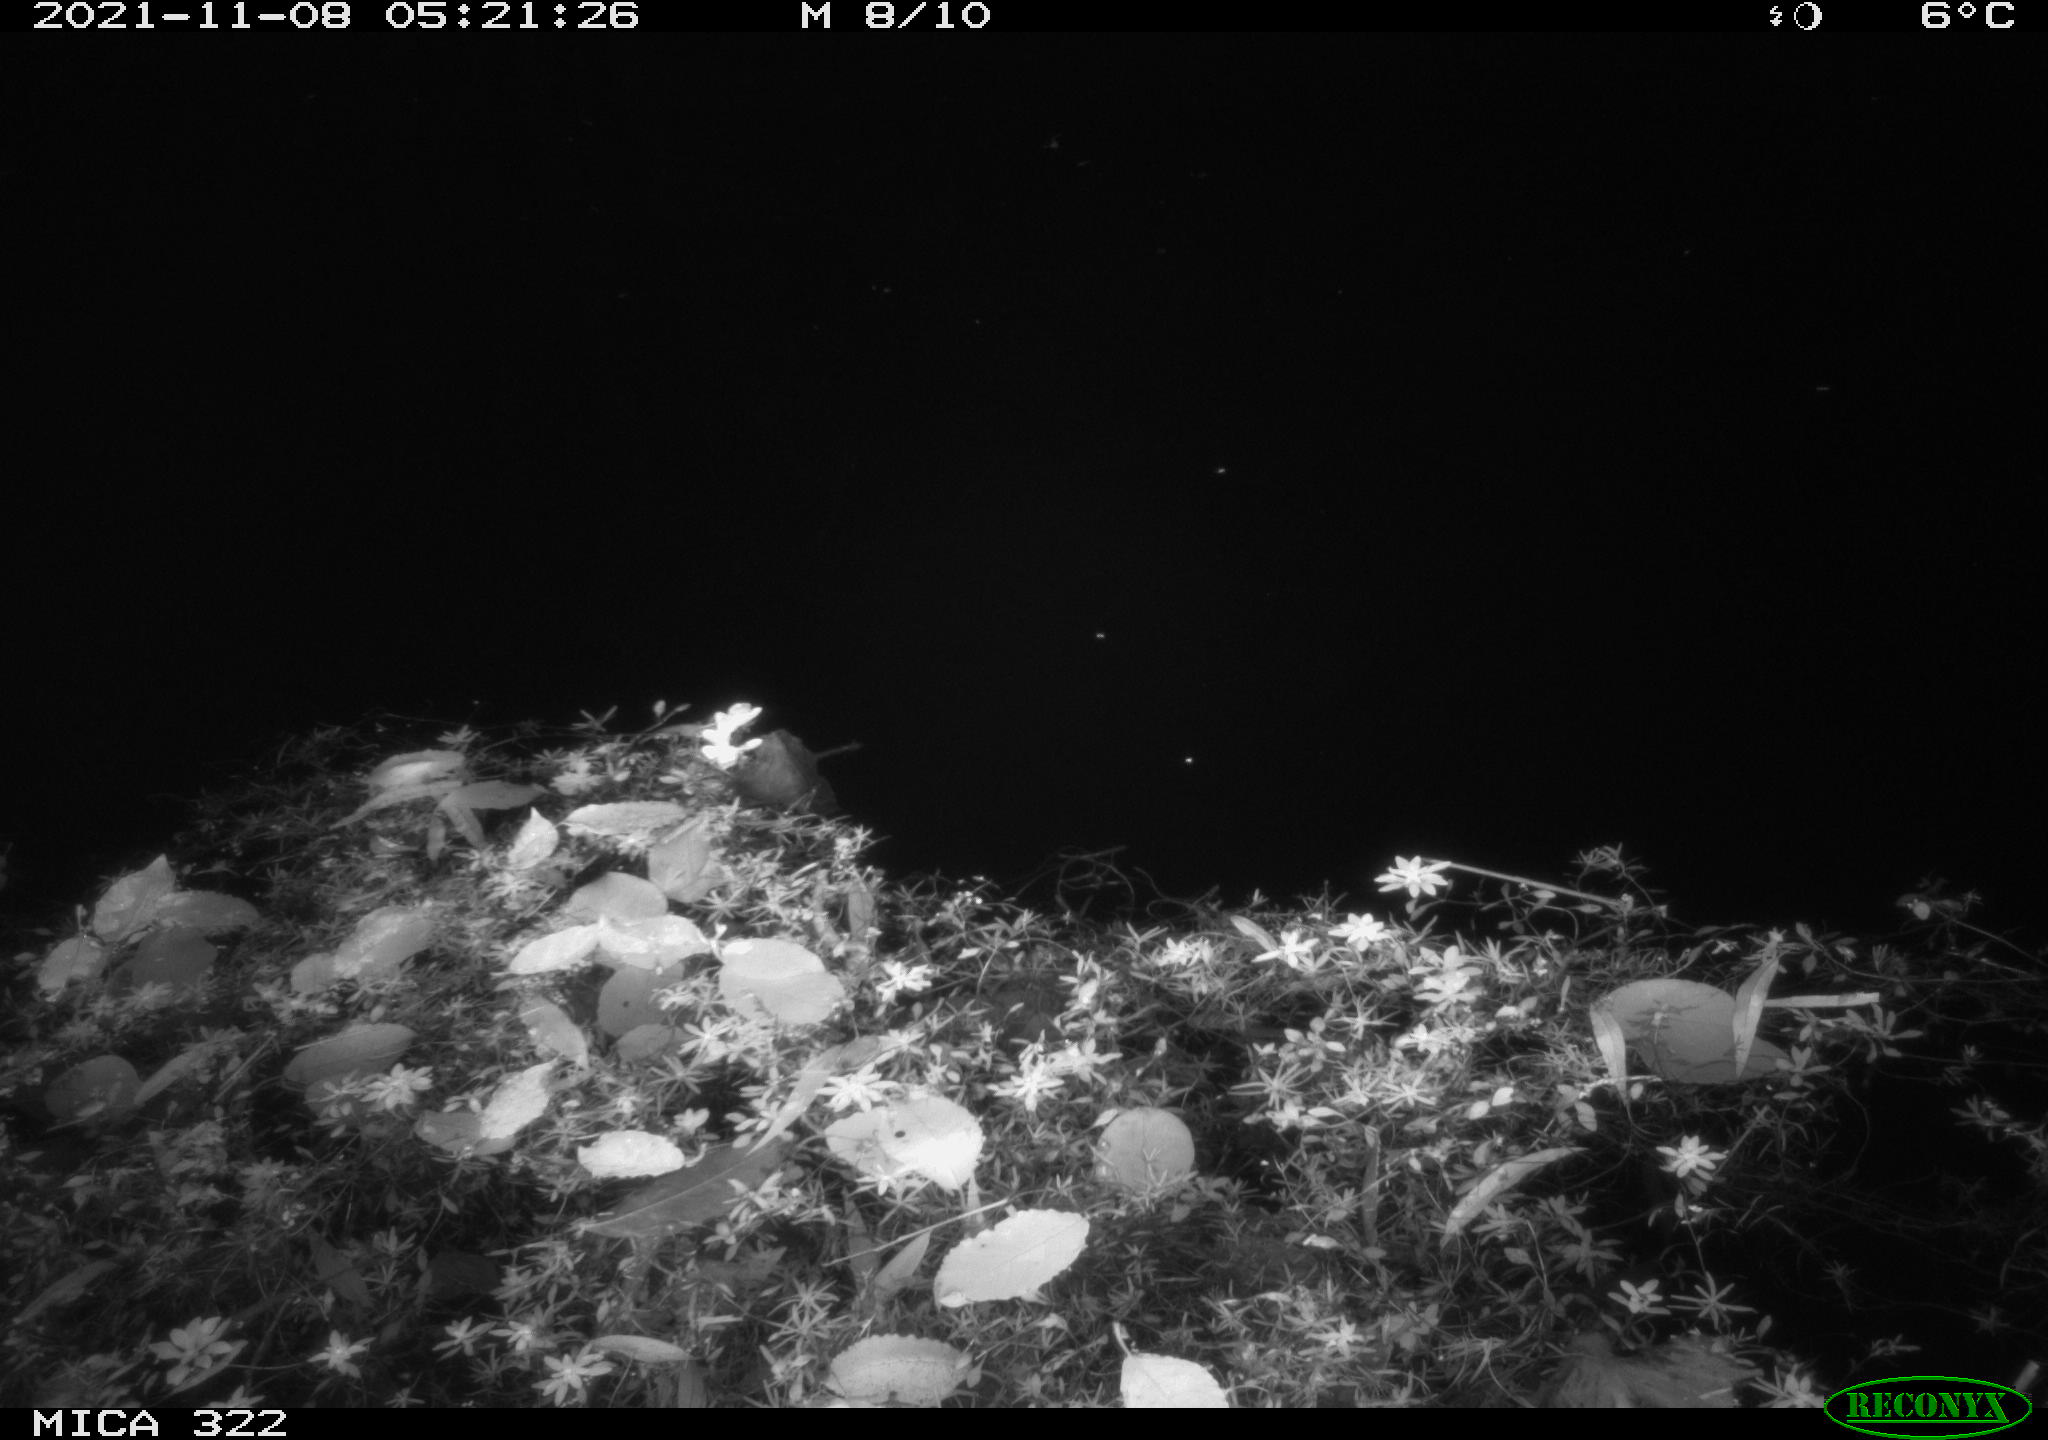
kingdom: Animalia
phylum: Chordata
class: Mammalia
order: Rodentia
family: Muridae
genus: Rattus
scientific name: Rattus norvegicus
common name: Brown rat
